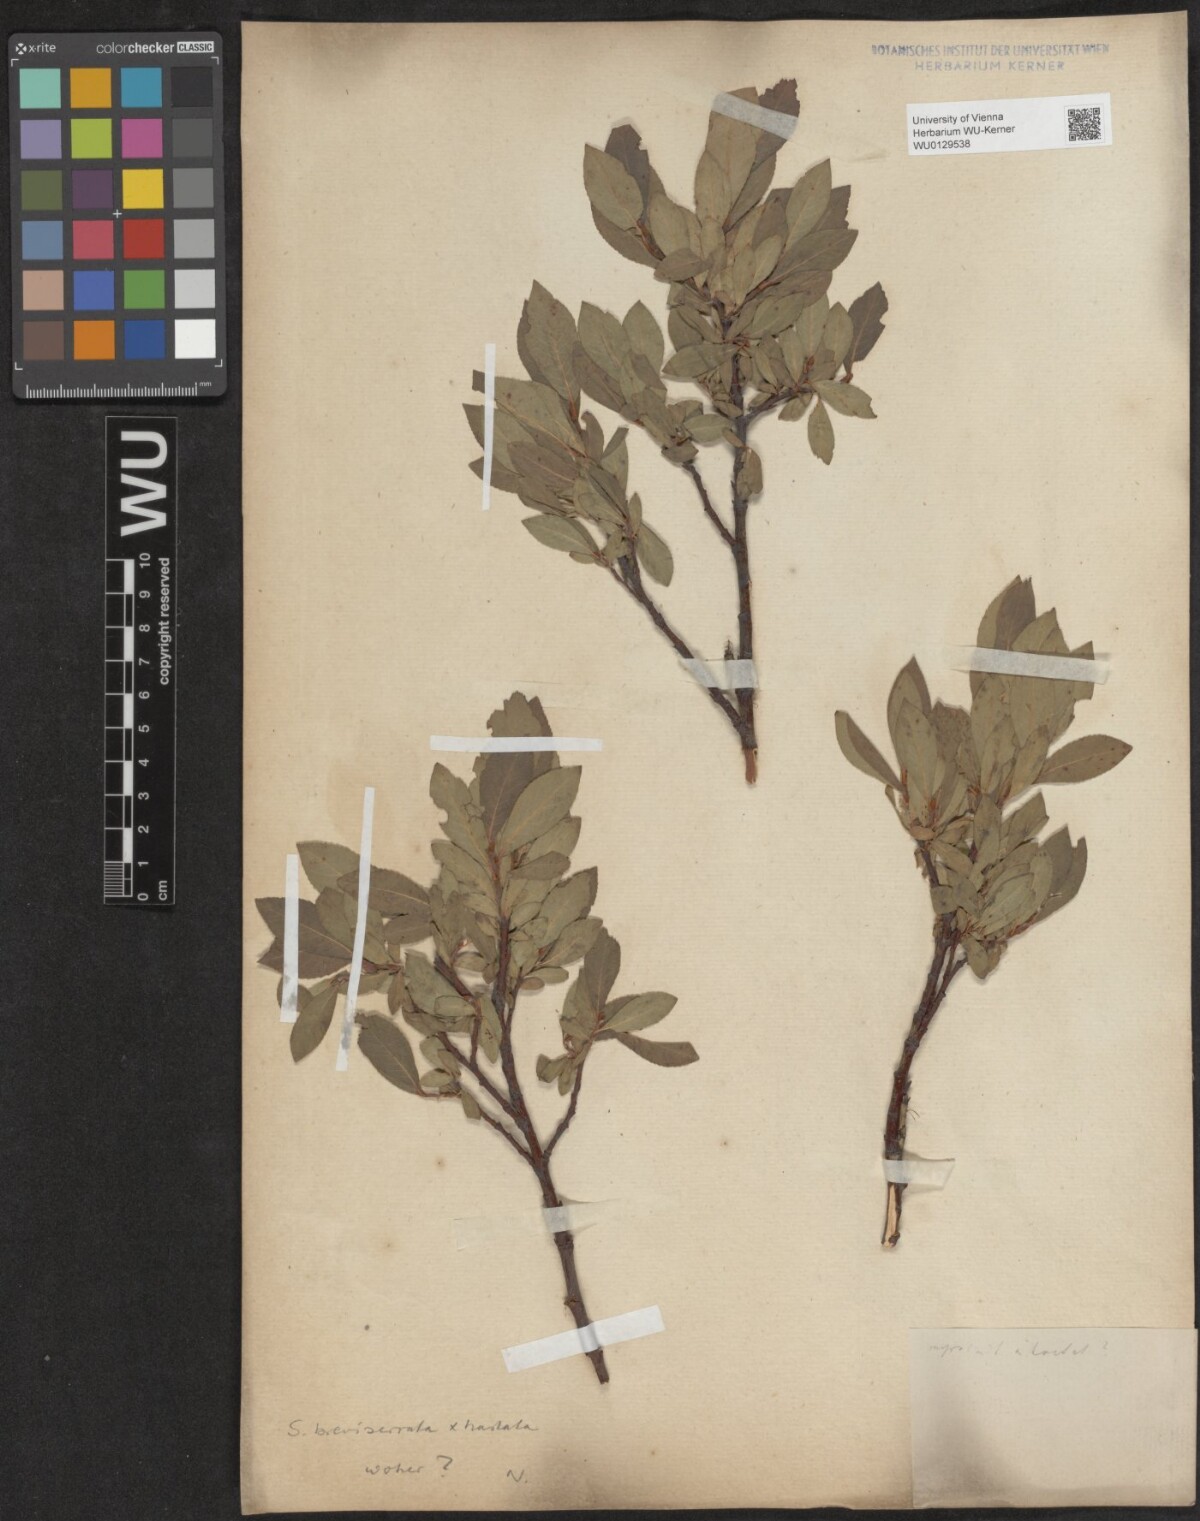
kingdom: Plantae
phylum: Tracheophyta
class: Magnoliopsida
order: Malpighiales
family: Salicaceae
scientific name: Salicaceae
